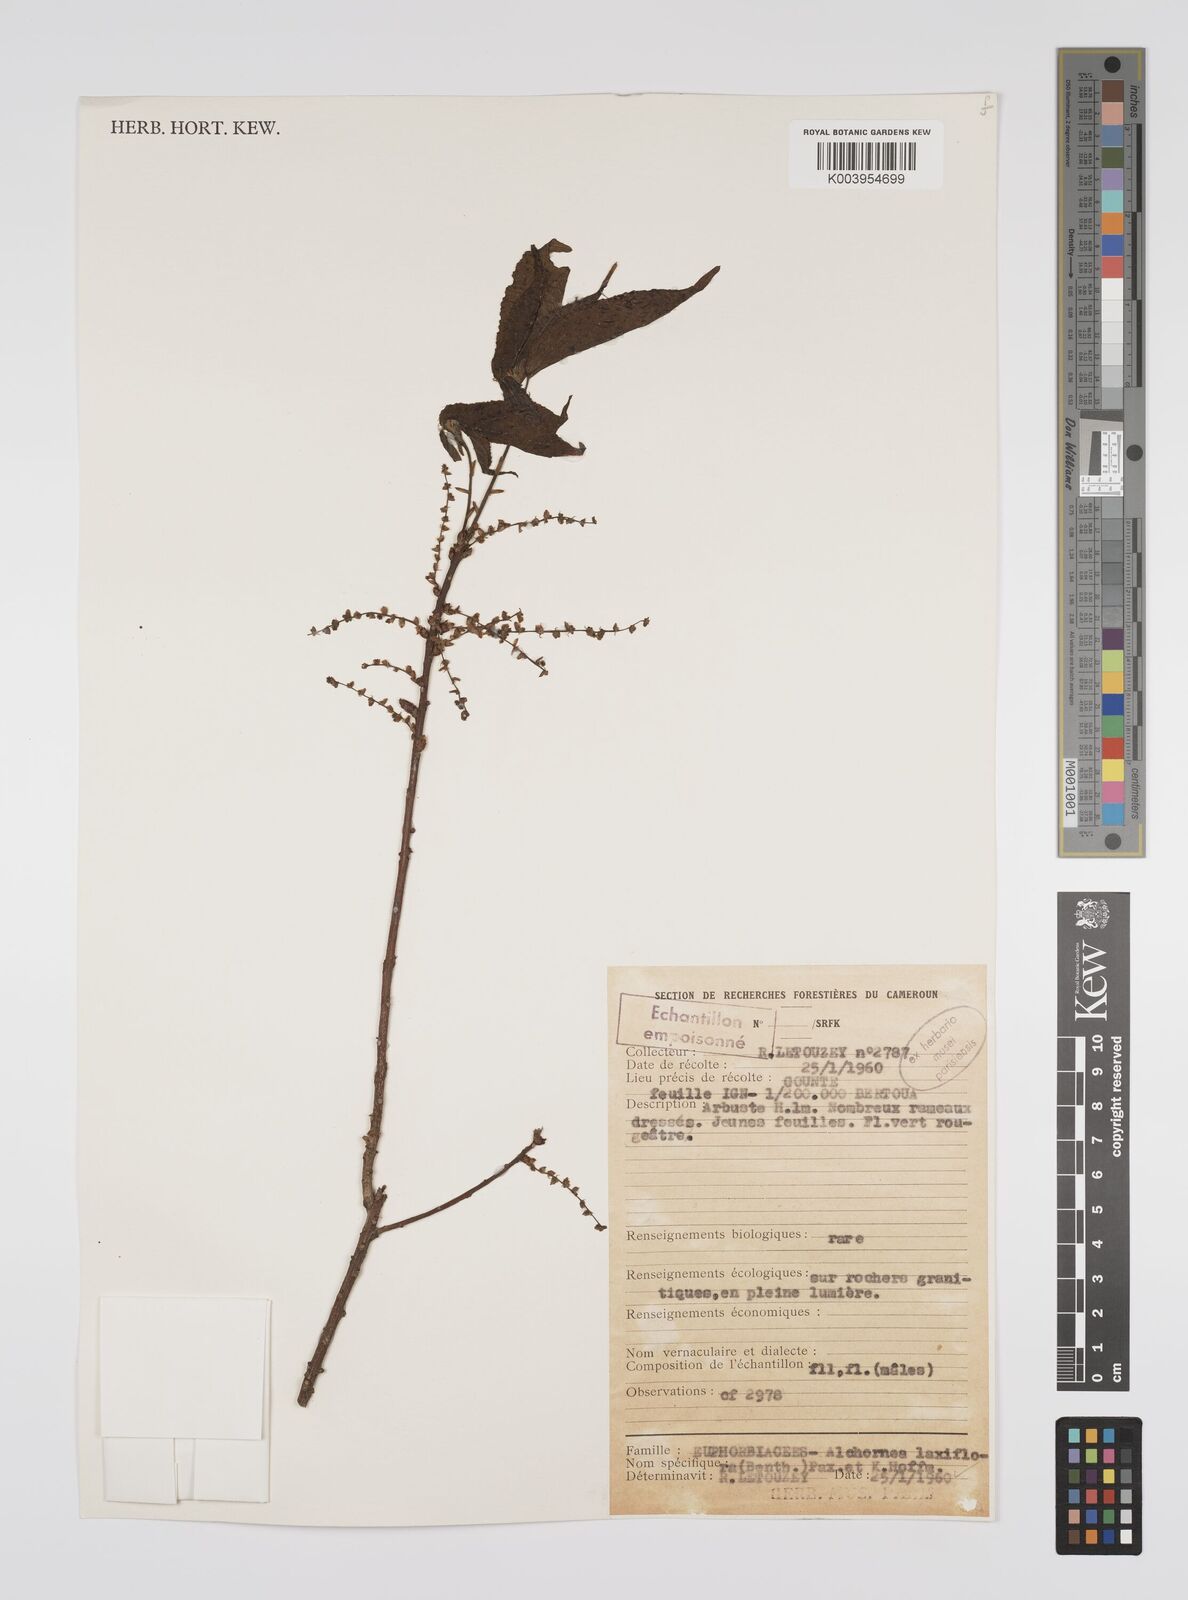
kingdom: Plantae
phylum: Tracheophyta
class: Magnoliopsida
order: Malpighiales
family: Euphorbiaceae
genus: Alchornea
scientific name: Alchornea laxiflora
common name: Lowveld bead-string
